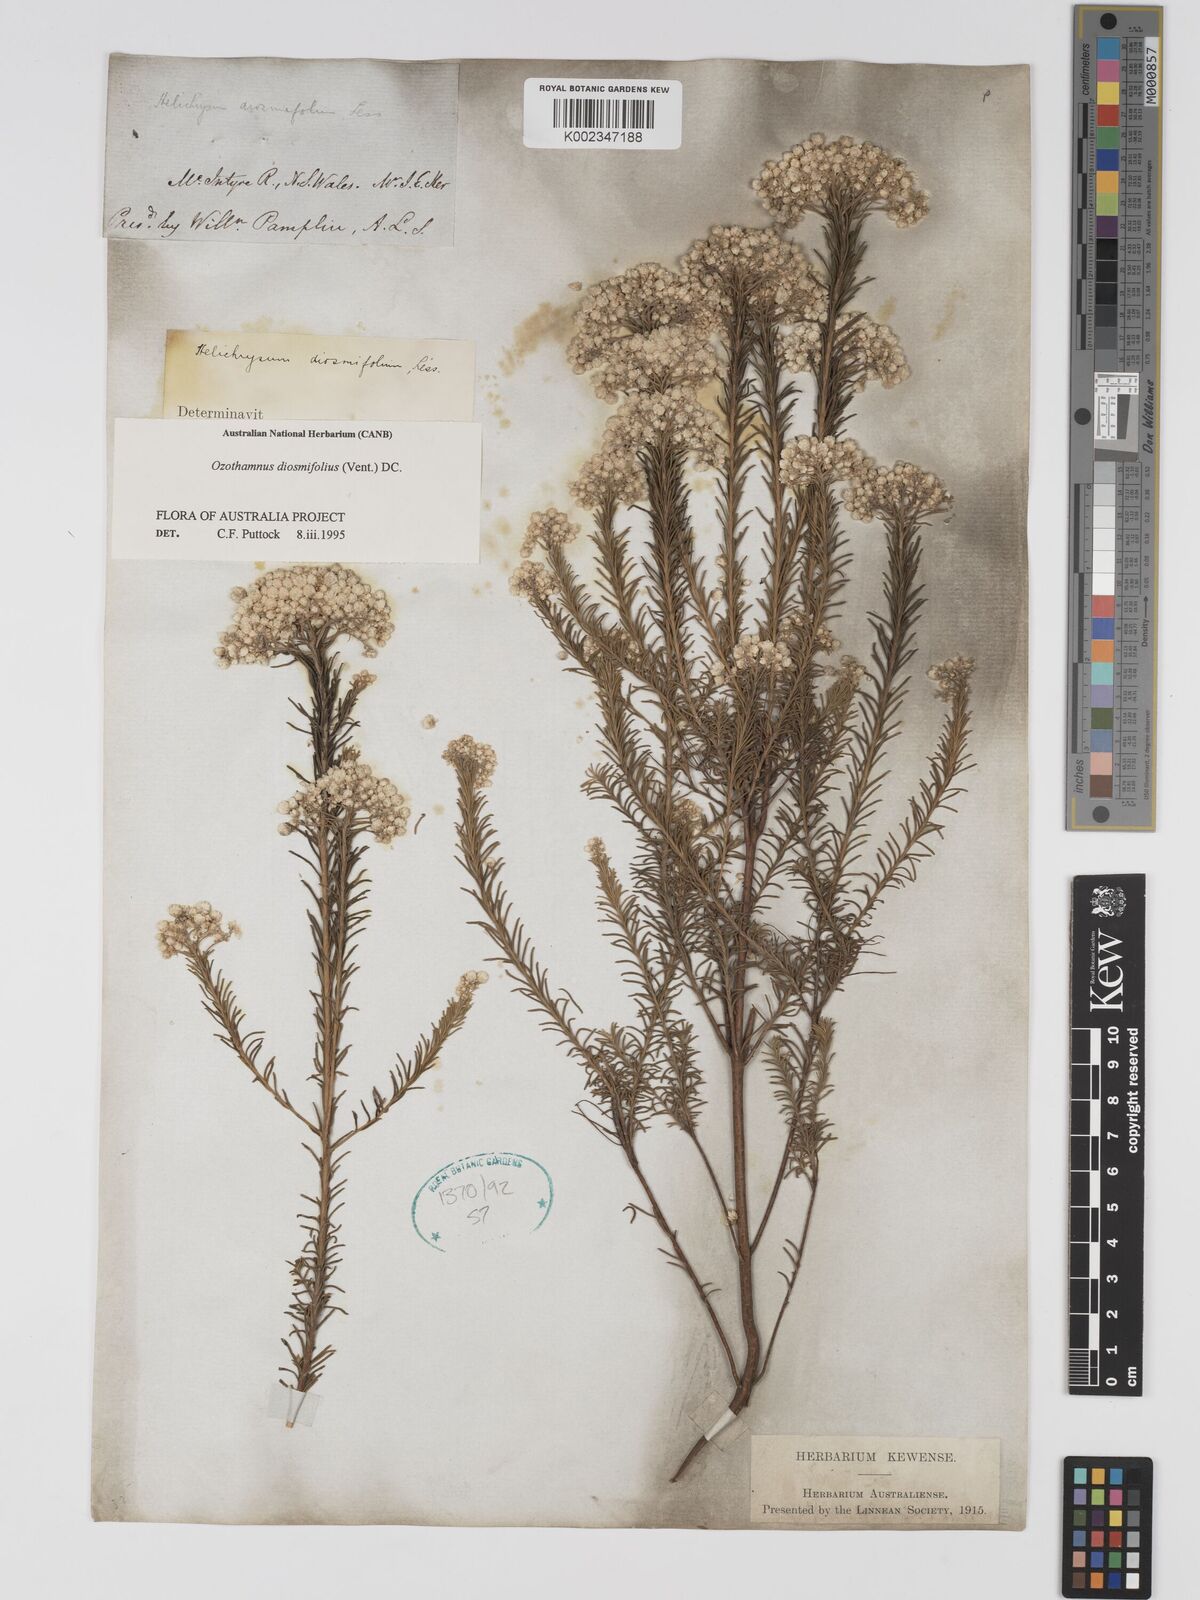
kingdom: Plantae
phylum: Tracheophyta
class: Magnoliopsida
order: Asterales
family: Asteraceae
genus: Ozothamnus
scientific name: Ozothamnus diosmifolius
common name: White-dogwood
